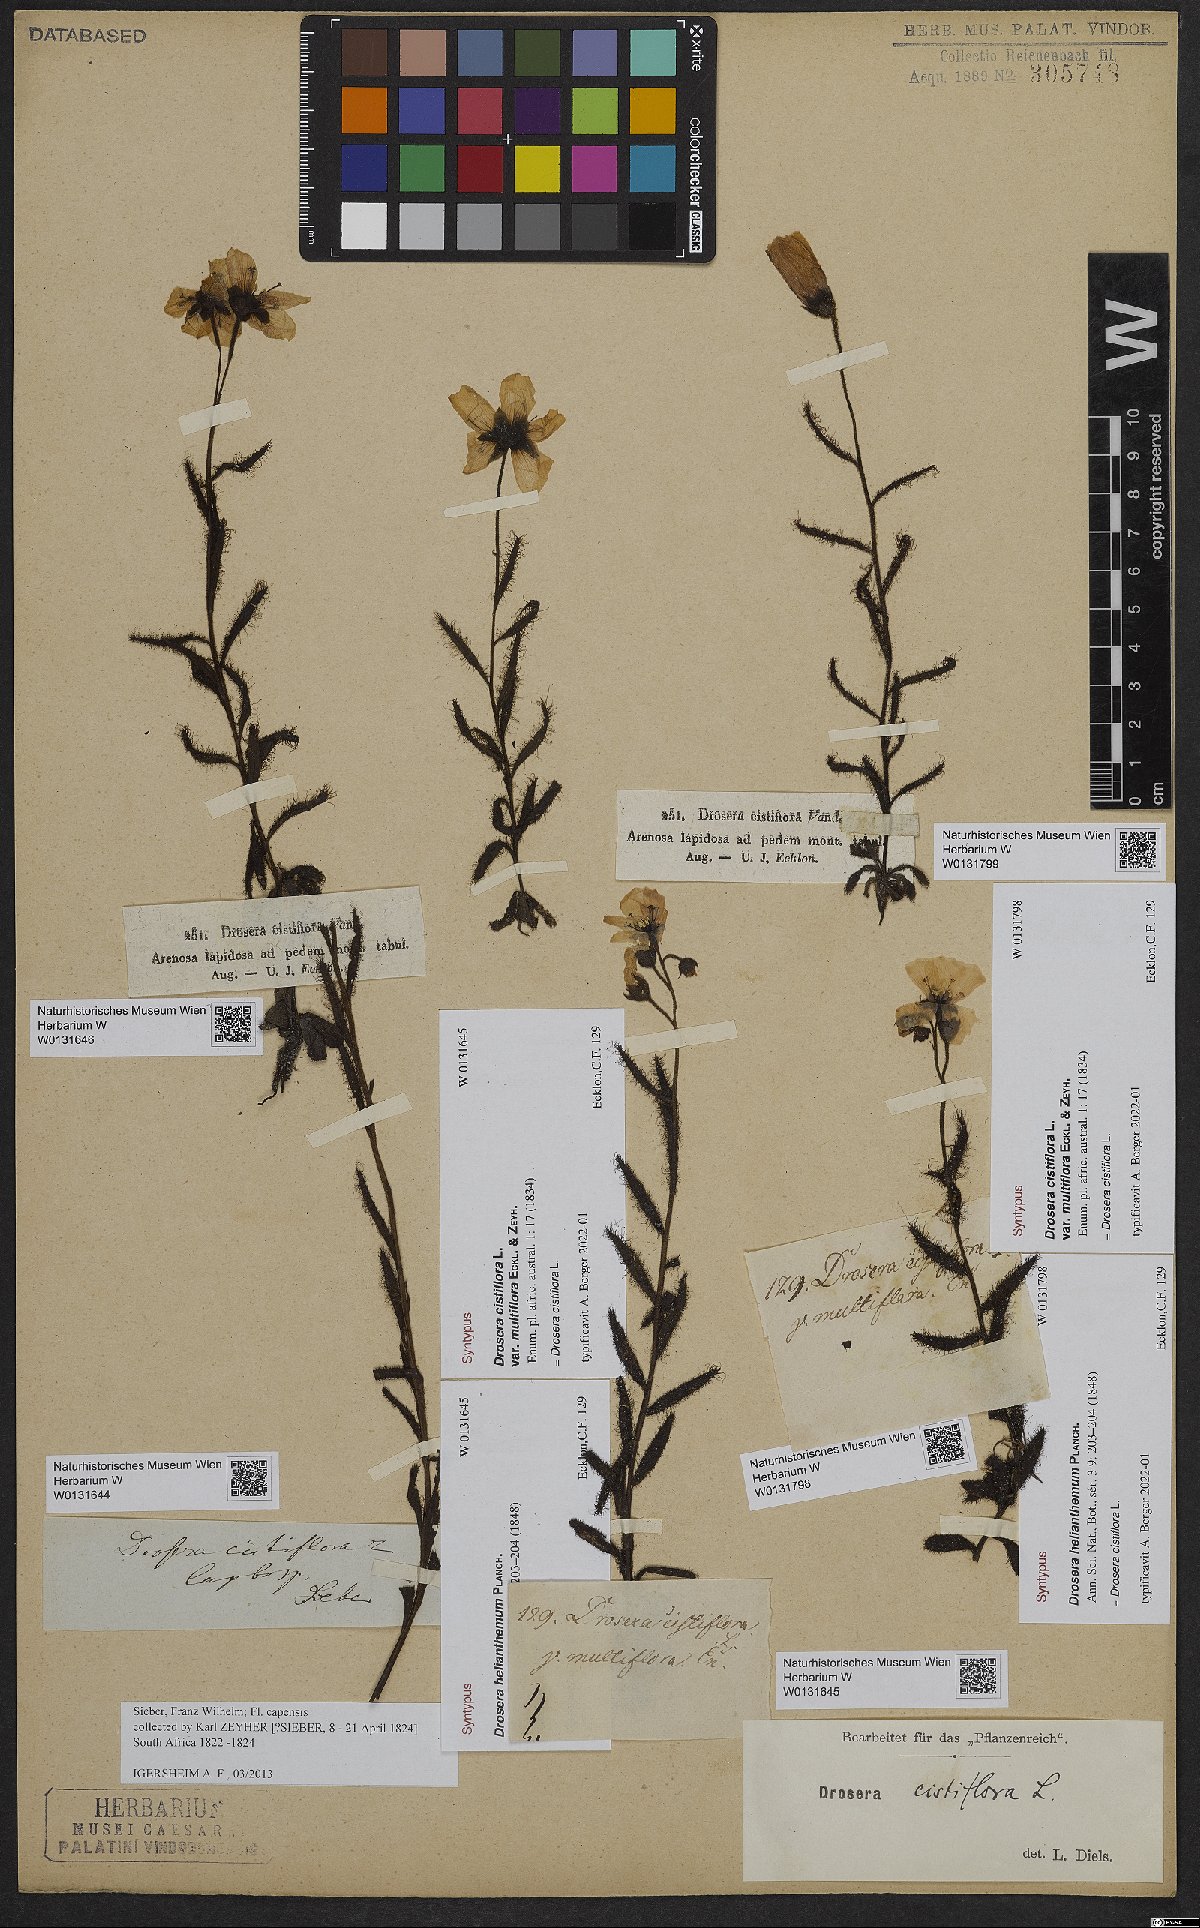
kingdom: Plantae
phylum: Tracheophyta
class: Magnoliopsida
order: Caryophyllales
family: Droseraceae
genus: Drosera
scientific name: Drosera cistiflora
